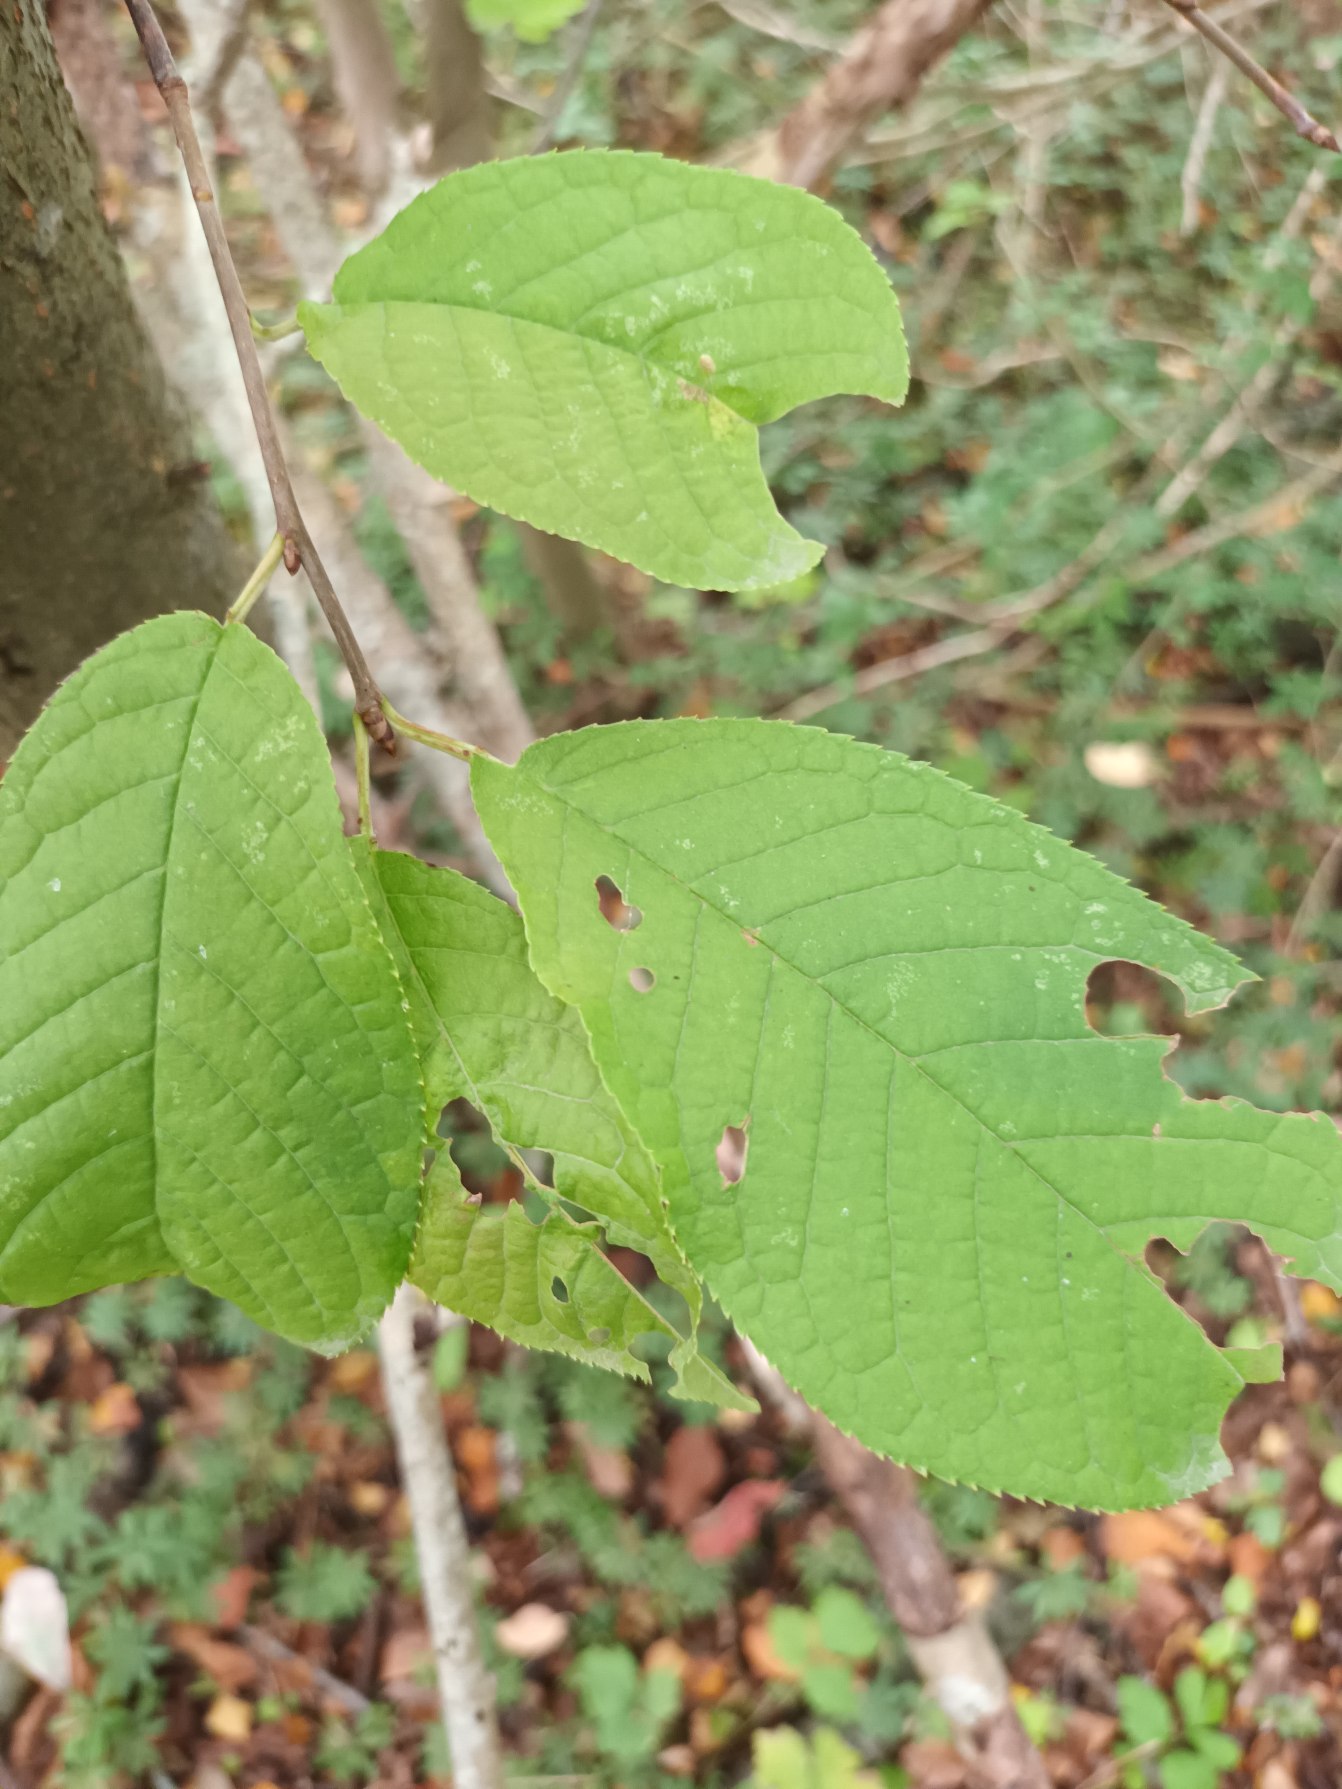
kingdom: Plantae
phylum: Tracheophyta
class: Magnoliopsida
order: Rosales
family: Rosaceae
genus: Prunus
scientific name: Prunus padus
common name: Almindelig hæg
